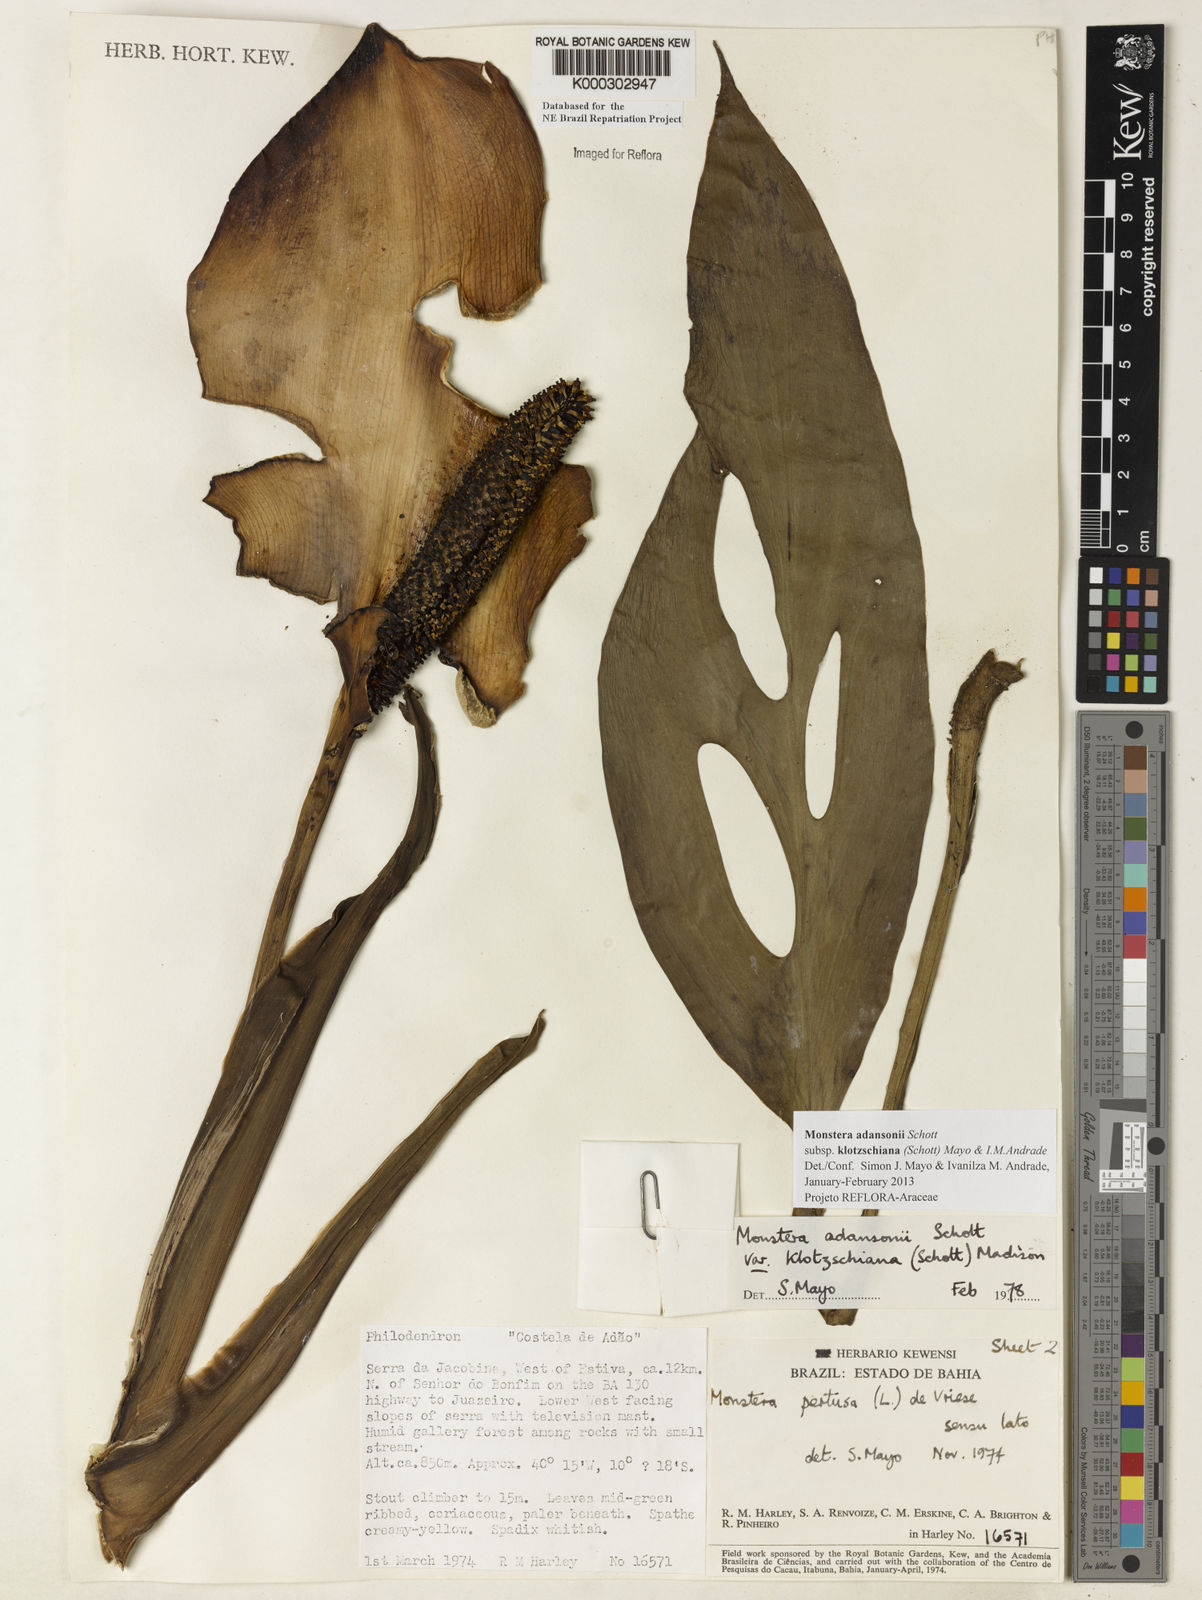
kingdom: Plantae
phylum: Tracheophyta
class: Liliopsida
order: Alismatales
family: Araceae
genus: Monstera
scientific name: Monstera adansonii
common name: Tarovine
